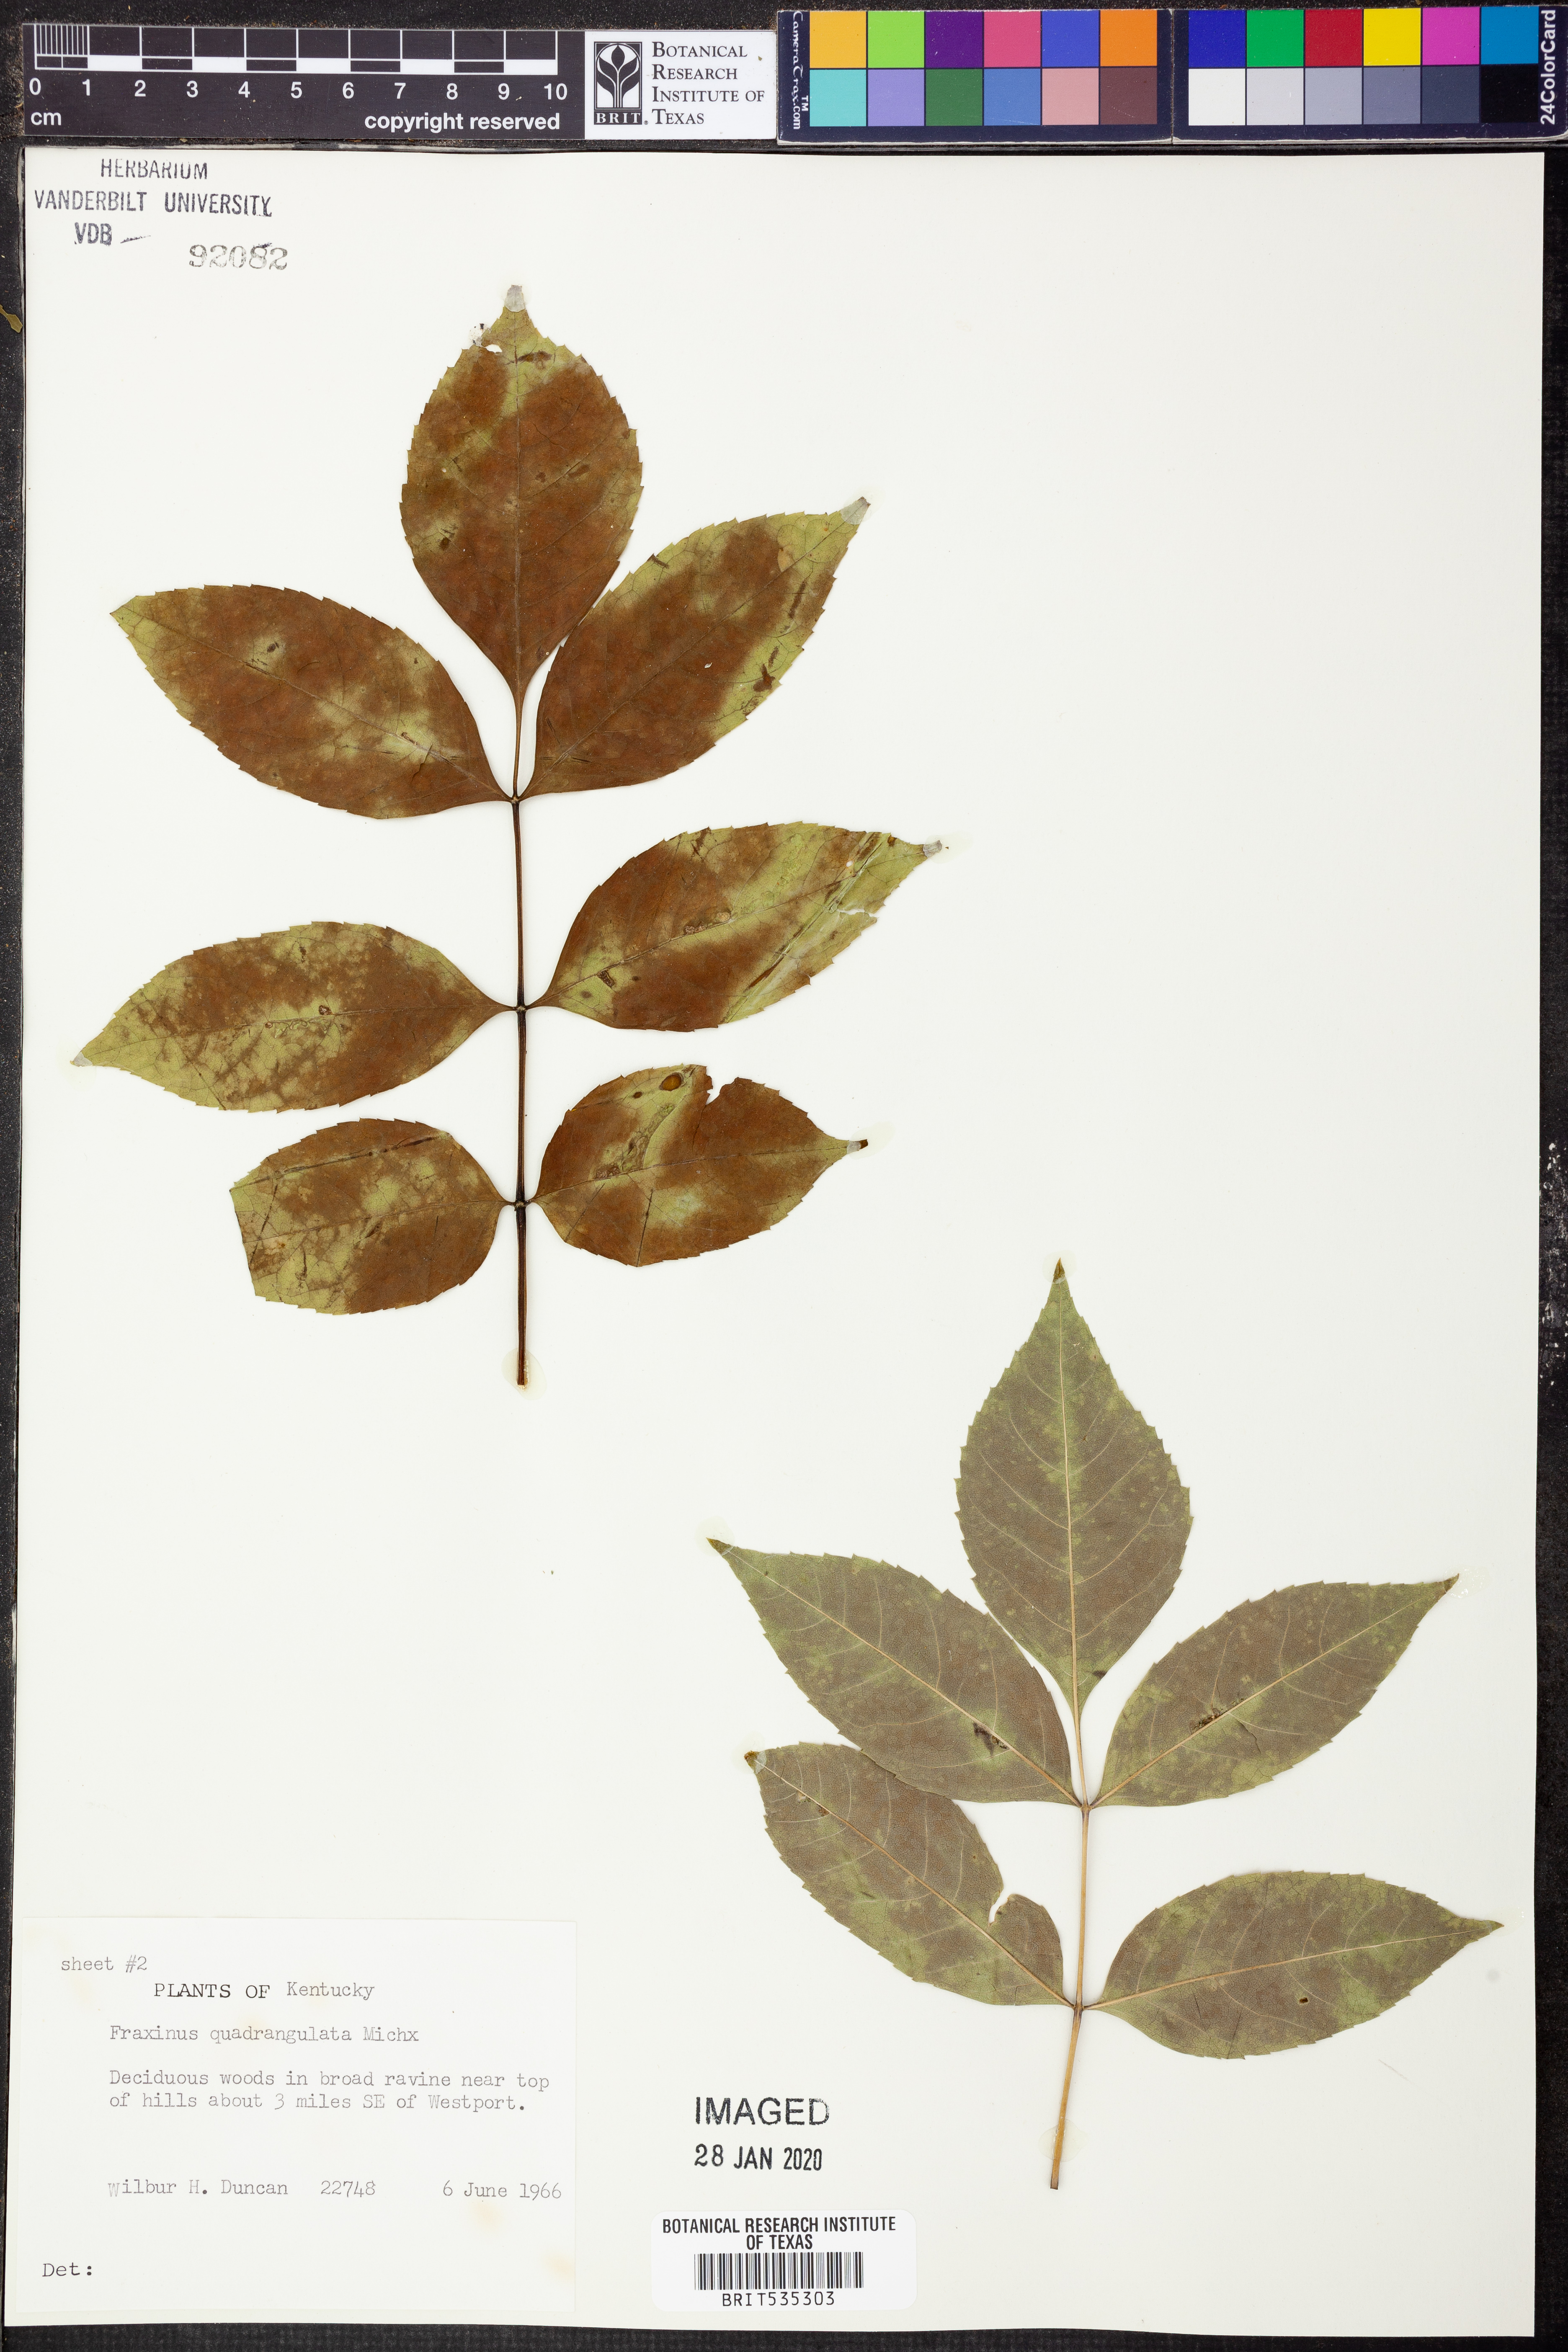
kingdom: Plantae
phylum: Tracheophyta
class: Magnoliopsida
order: Lamiales
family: Oleaceae
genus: Fraxinus
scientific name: Fraxinus quadrangulata
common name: Blue ash
